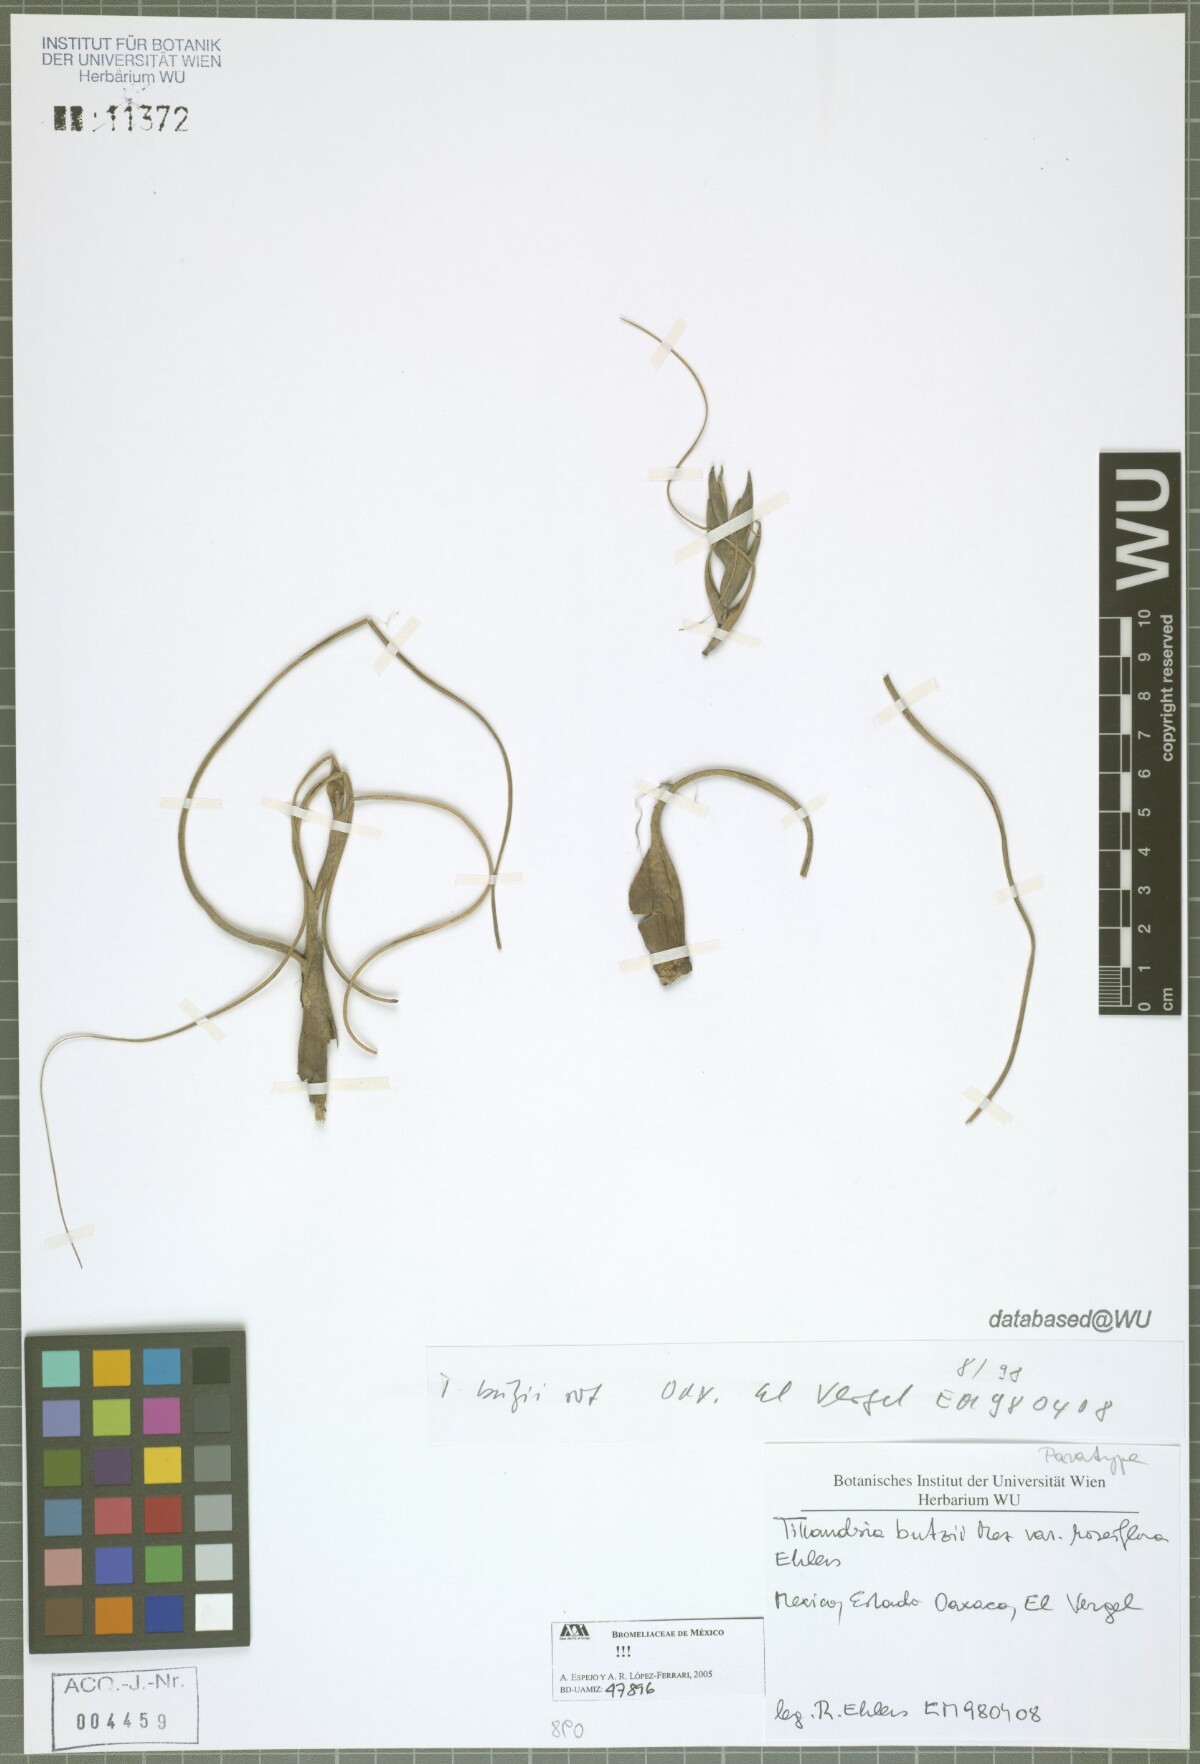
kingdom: Plantae
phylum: Tracheophyta
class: Liliopsida
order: Poales
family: Bromeliaceae
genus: Tillandsia
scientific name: Tillandsia butzii
